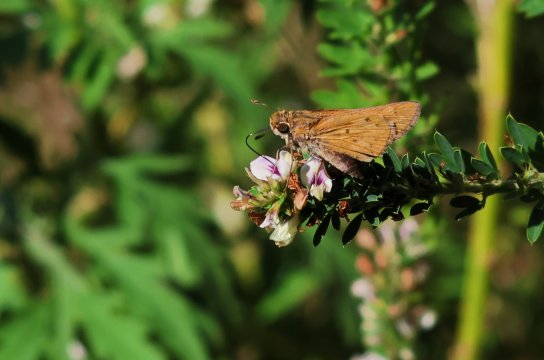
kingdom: Animalia
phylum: Arthropoda
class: Insecta
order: Lepidoptera
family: Hesperiidae
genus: Hylephila
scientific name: Hylephila phyleus
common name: Fiery Skipper
